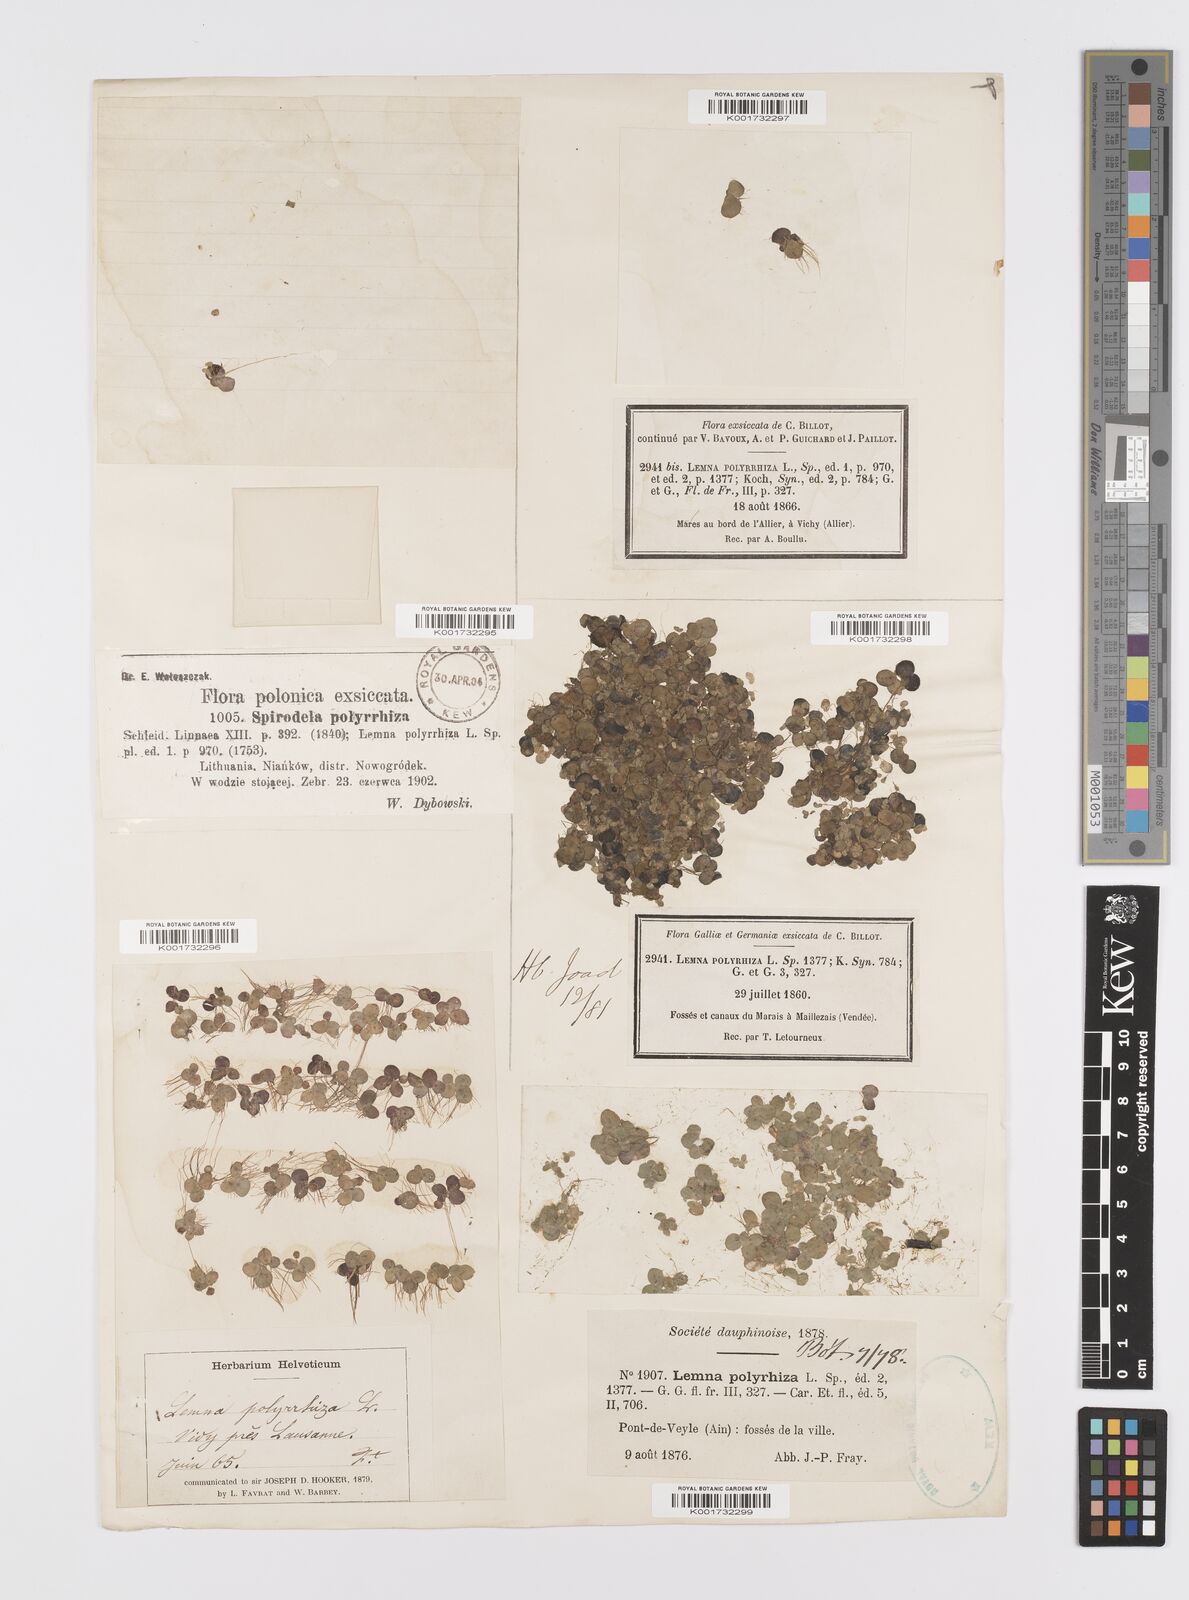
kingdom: Plantae
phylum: Tracheophyta
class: Liliopsida
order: Alismatales
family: Araceae
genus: Spirodela
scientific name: Spirodela polyrhiza
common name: Great duckweed
